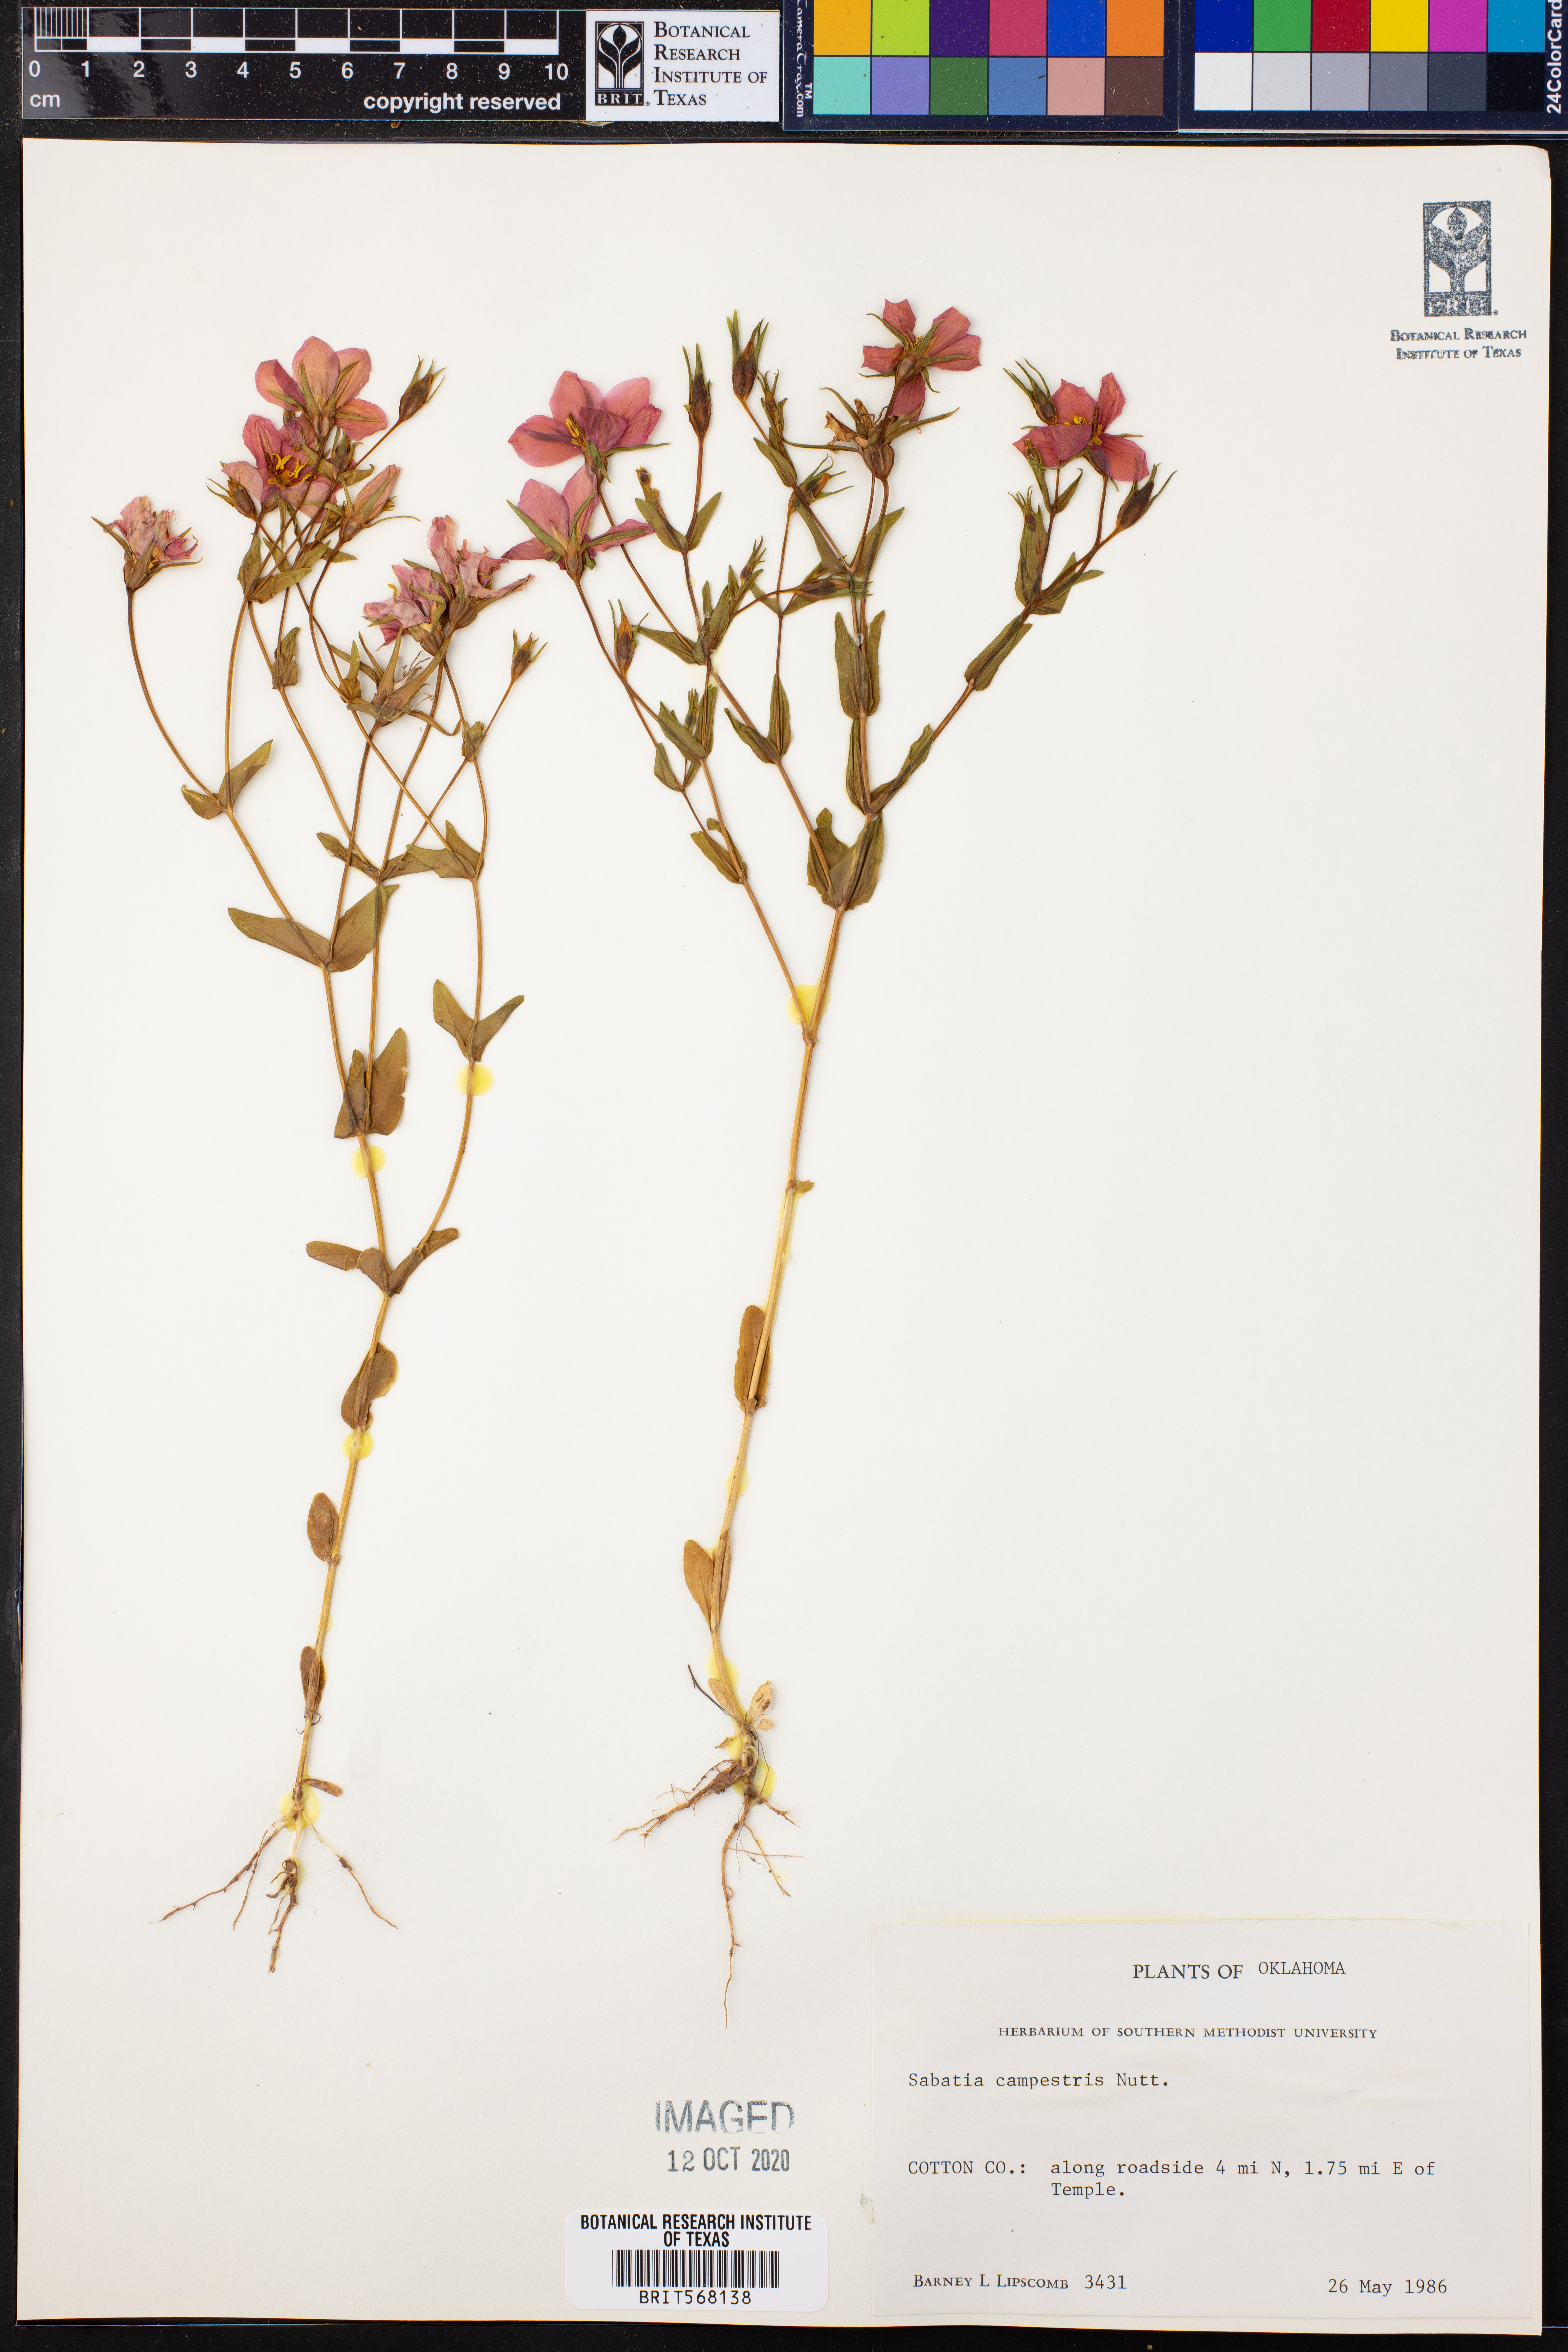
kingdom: Plantae
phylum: Tracheophyta
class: Magnoliopsida
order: Gentianales
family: Gentianaceae
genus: Sabatia
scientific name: Sabatia campestris
